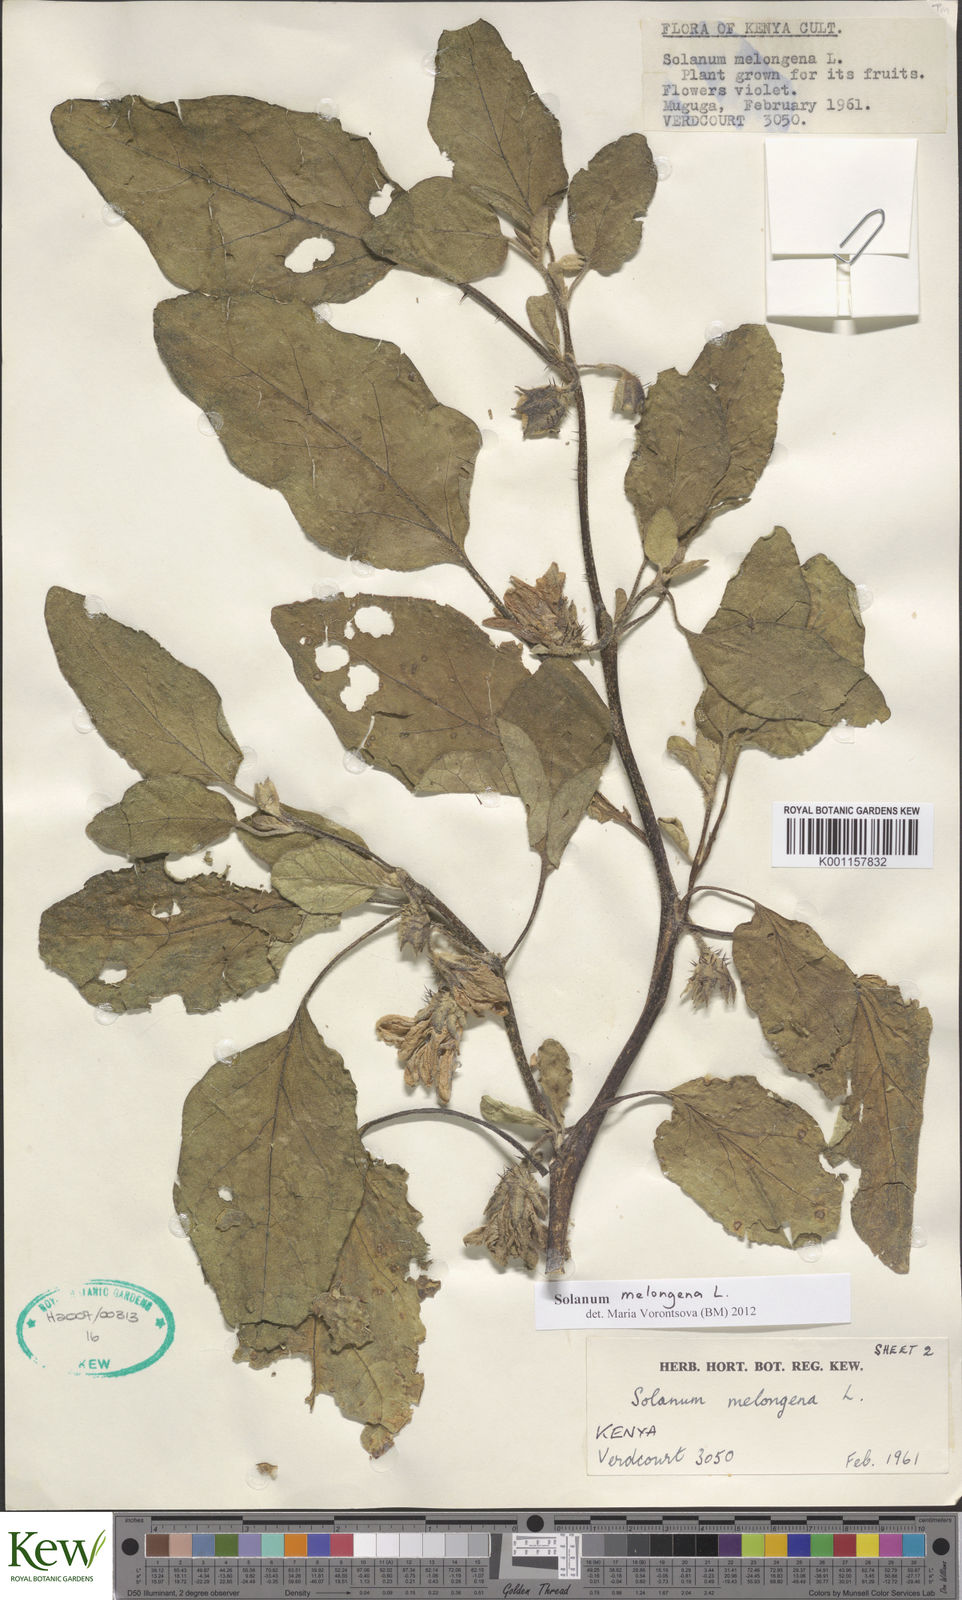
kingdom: Plantae
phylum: Tracheophyta
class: Magnoliopsida
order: Solanales
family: Solanaceae
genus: Solanum
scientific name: Solanum melongena
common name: Eggplant
